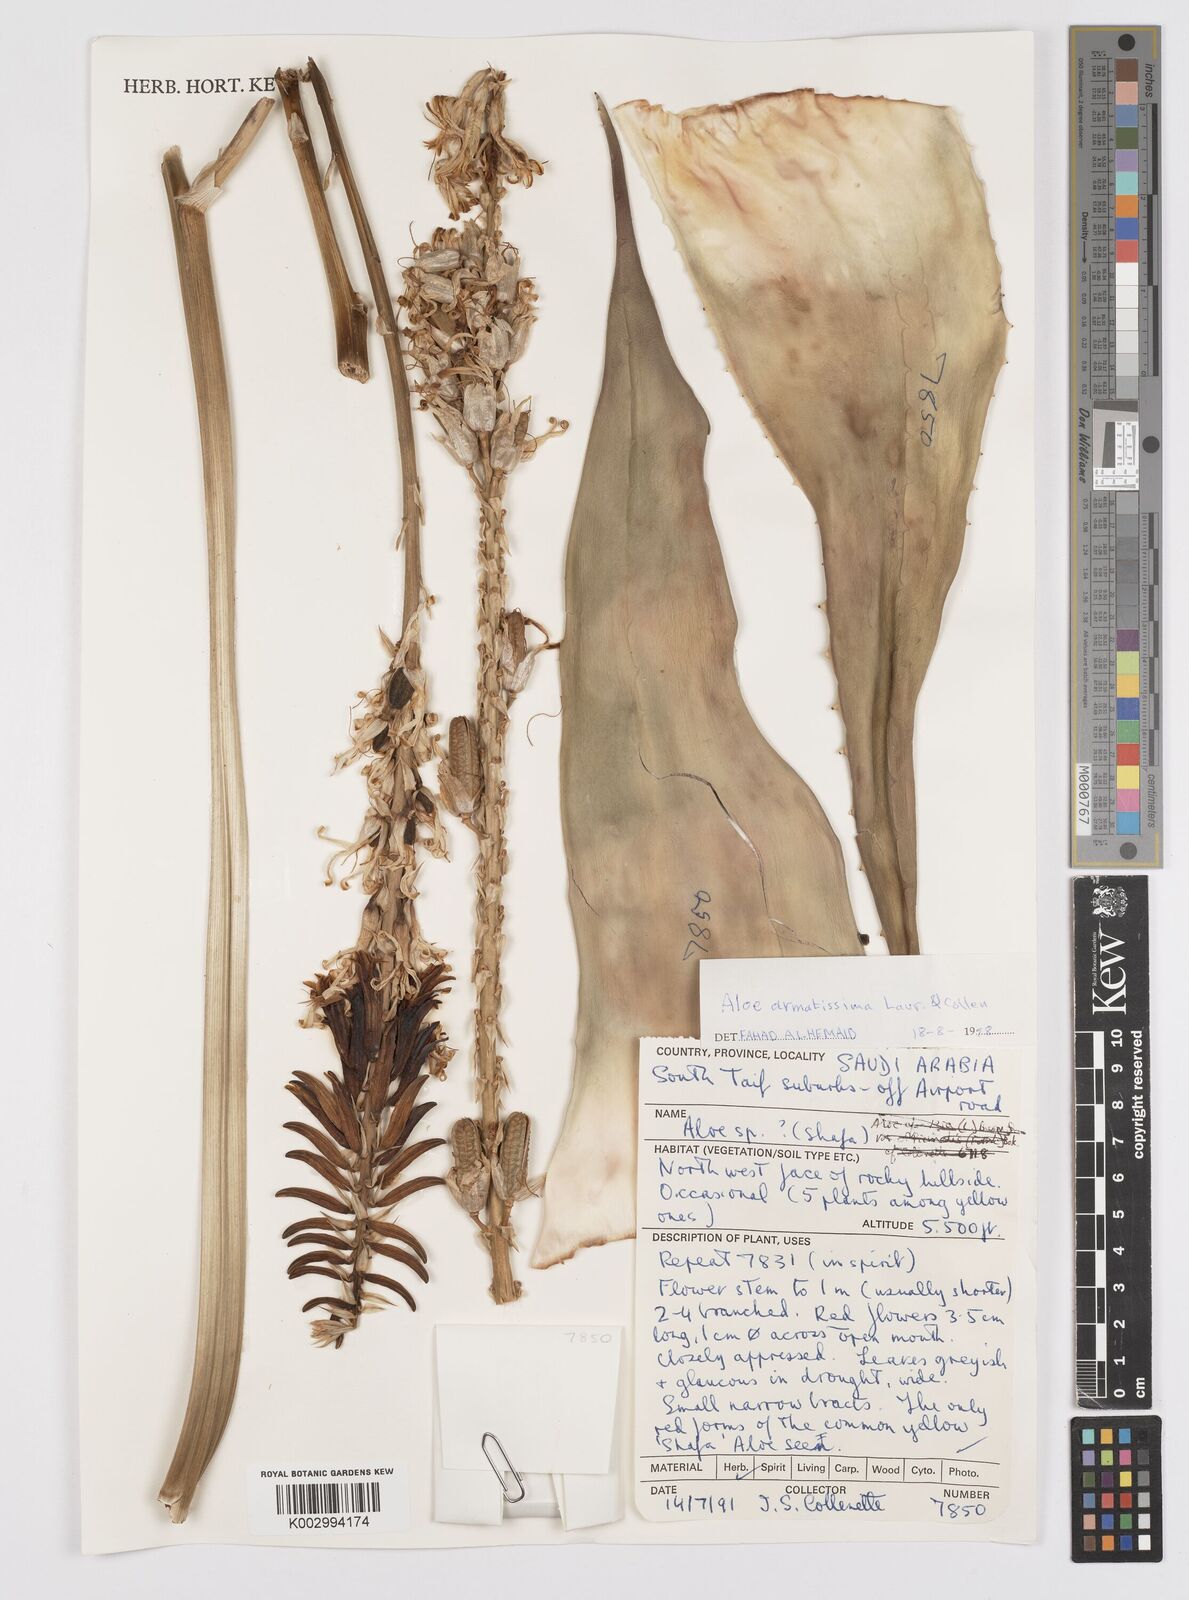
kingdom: Plantae
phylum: Tracheophyta
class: Liliopsida
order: Asparagales
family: Asphodelaceae
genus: Aloe
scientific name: Aloe armatissima
